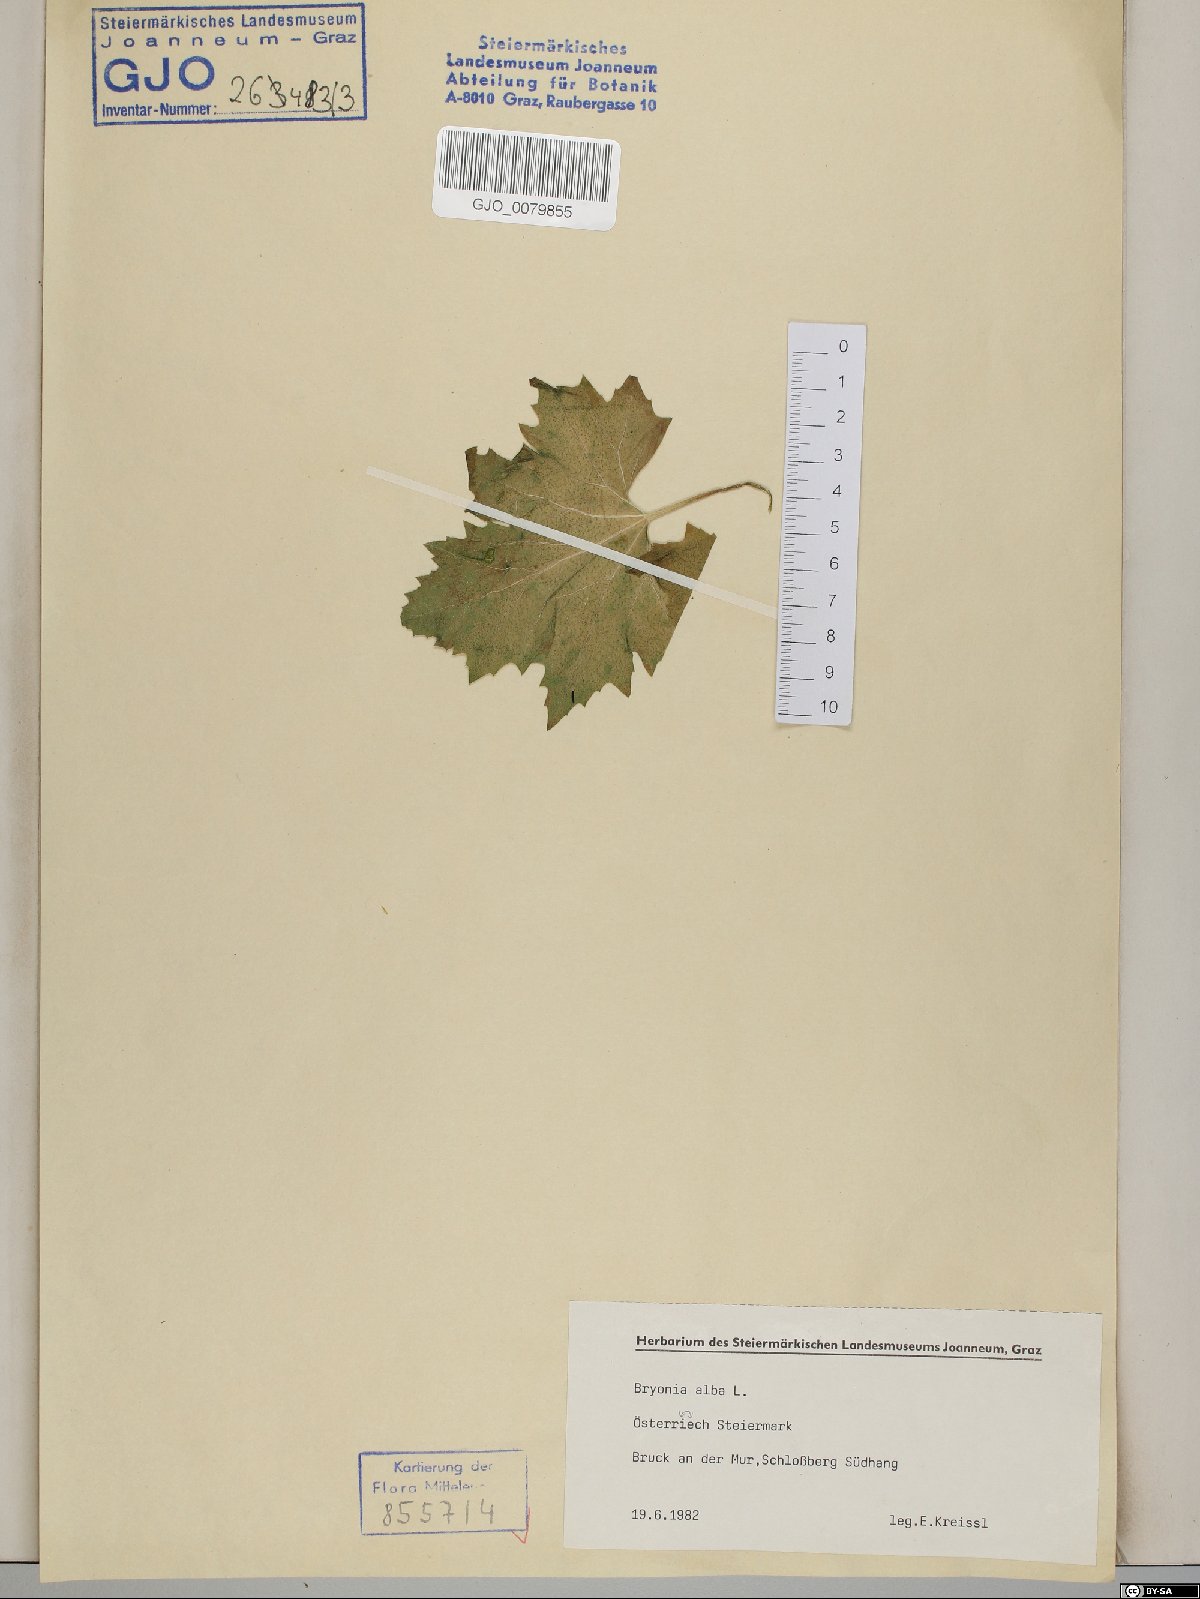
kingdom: Plantae
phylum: Tracheophyta
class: Magnoliopsida
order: Cucurbitales
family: Cucurbitaceae
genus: Bryonia
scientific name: Bryonia alba
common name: White bryony
